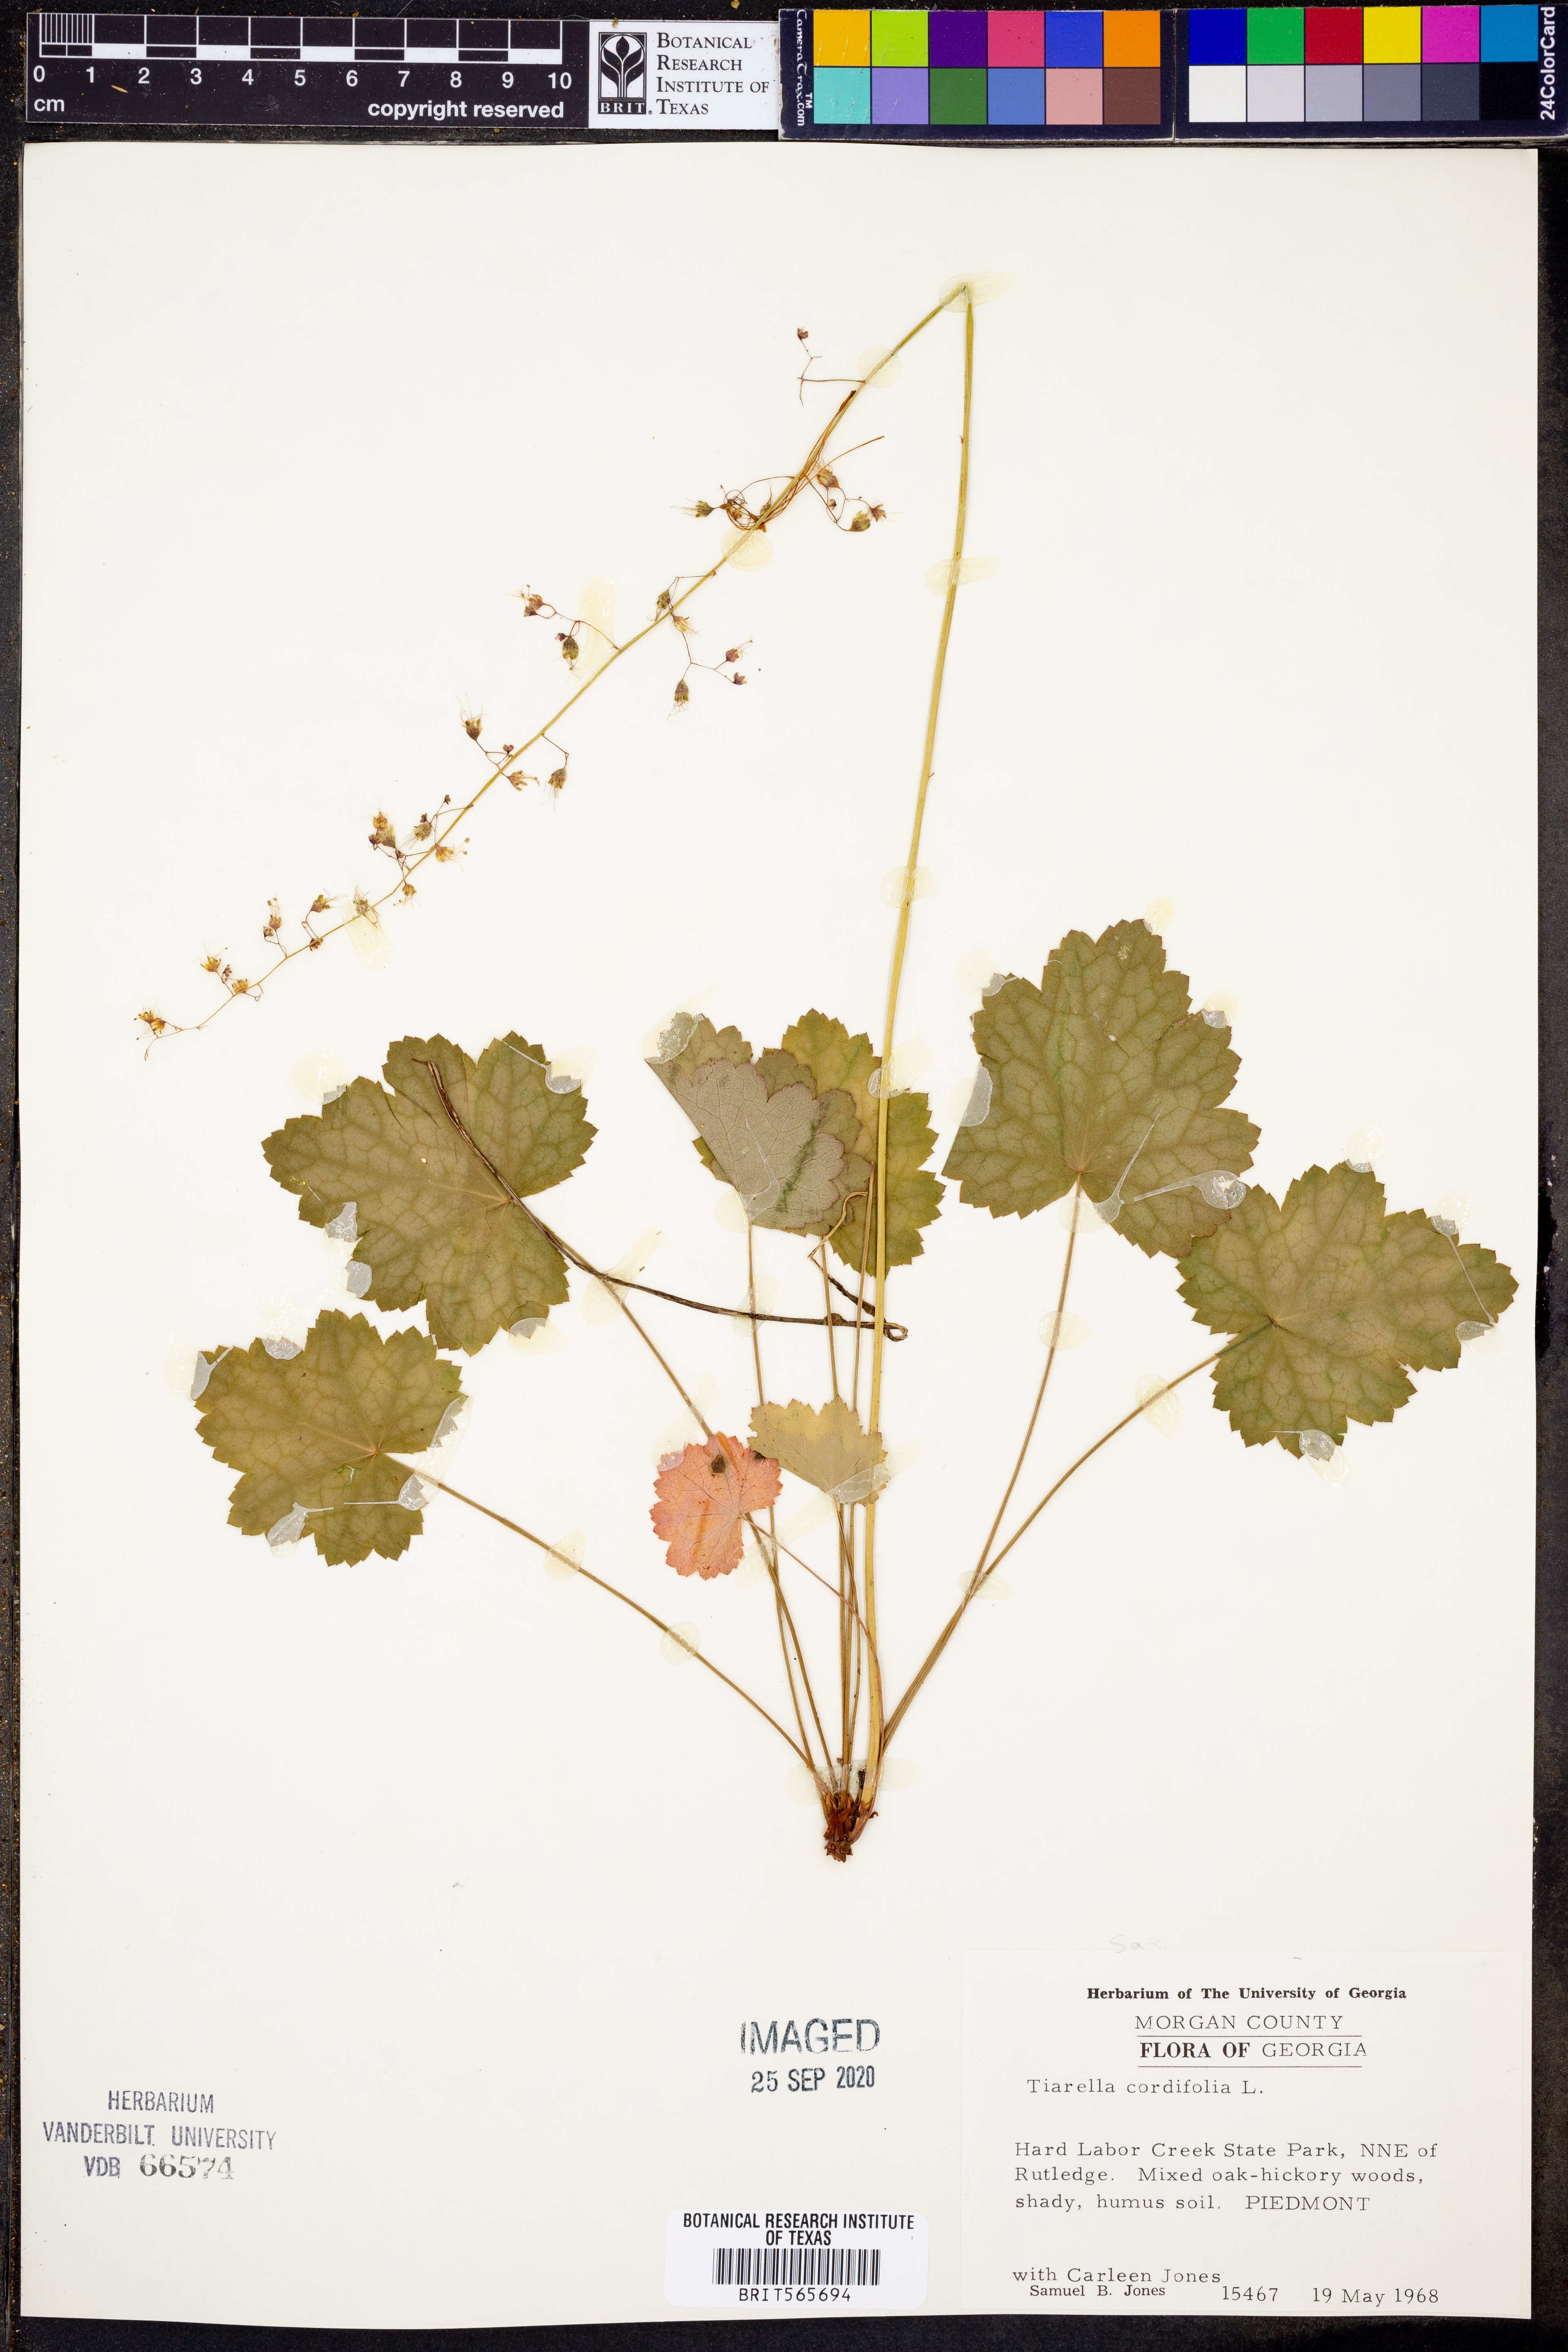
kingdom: Plantae
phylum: Tracheophyta
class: Magnoliopsida
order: Saxifragales
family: Saxifragaceae
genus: Tiarella
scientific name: Tiarella cordifolia
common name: Foamflower
